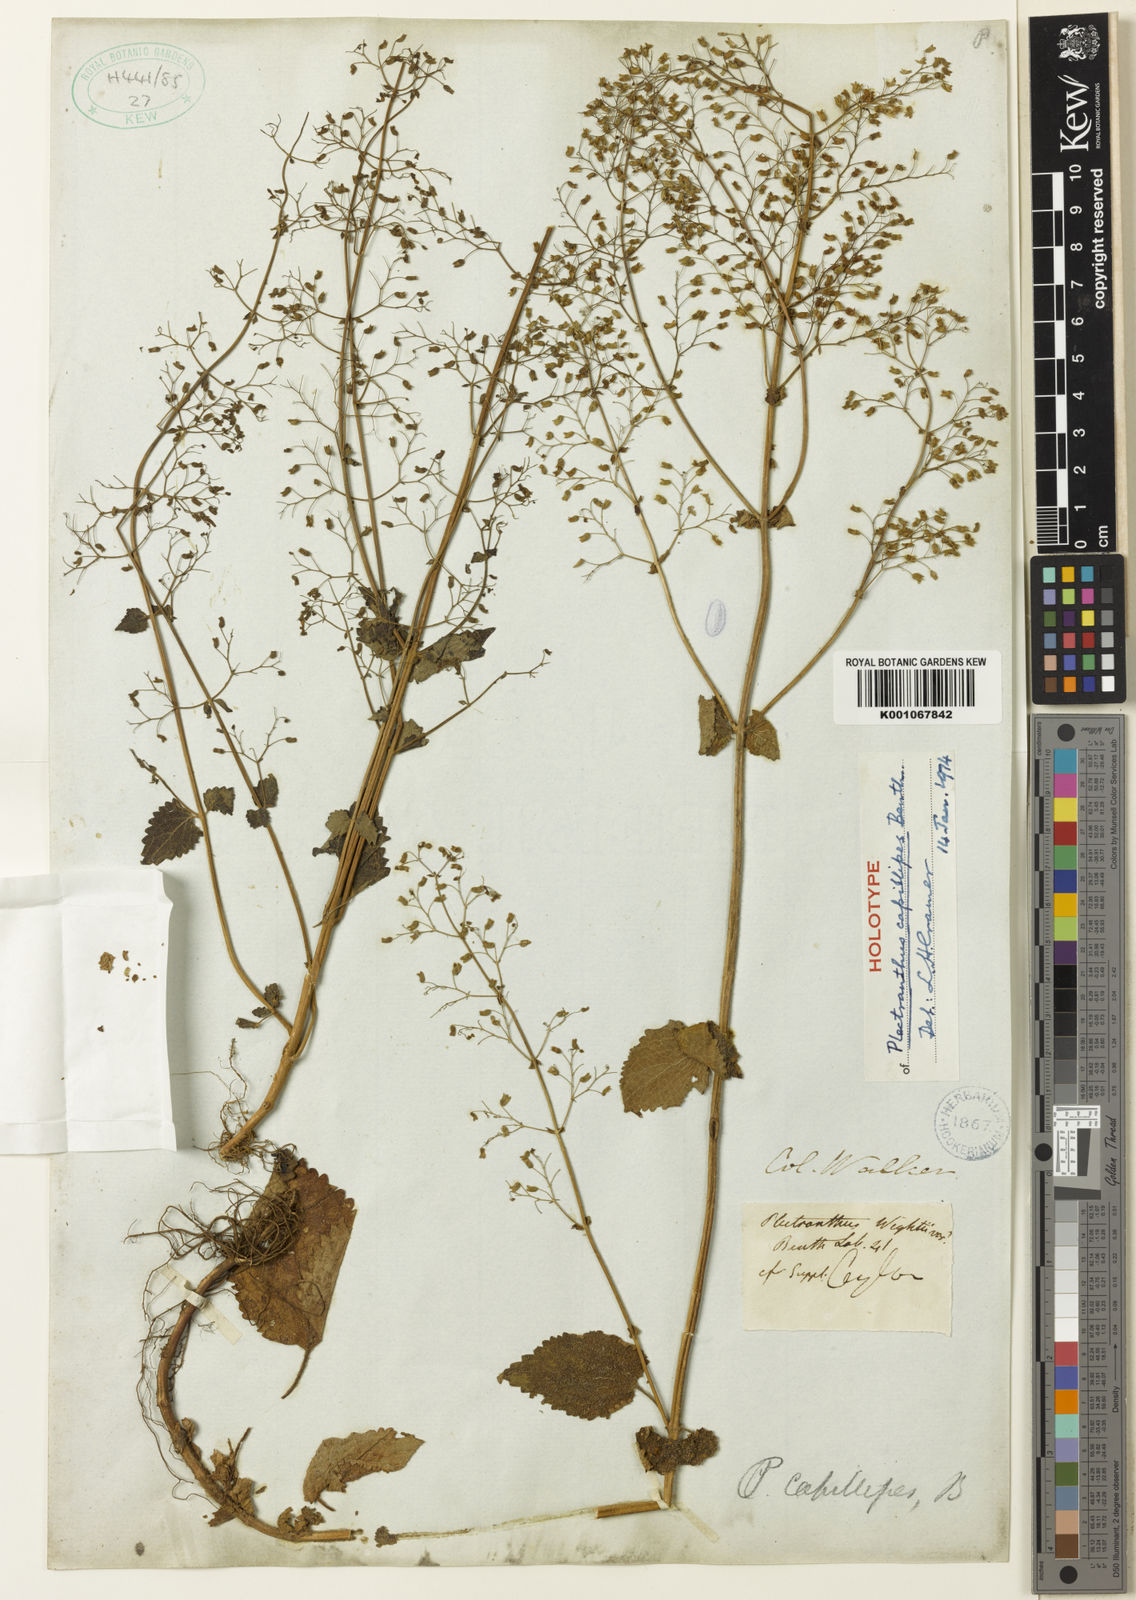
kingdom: Plantae
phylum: Tracheophyta
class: Magnoliopsida
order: Lamiales
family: Lamiaceae
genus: Isodon
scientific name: Isodon capillipes
